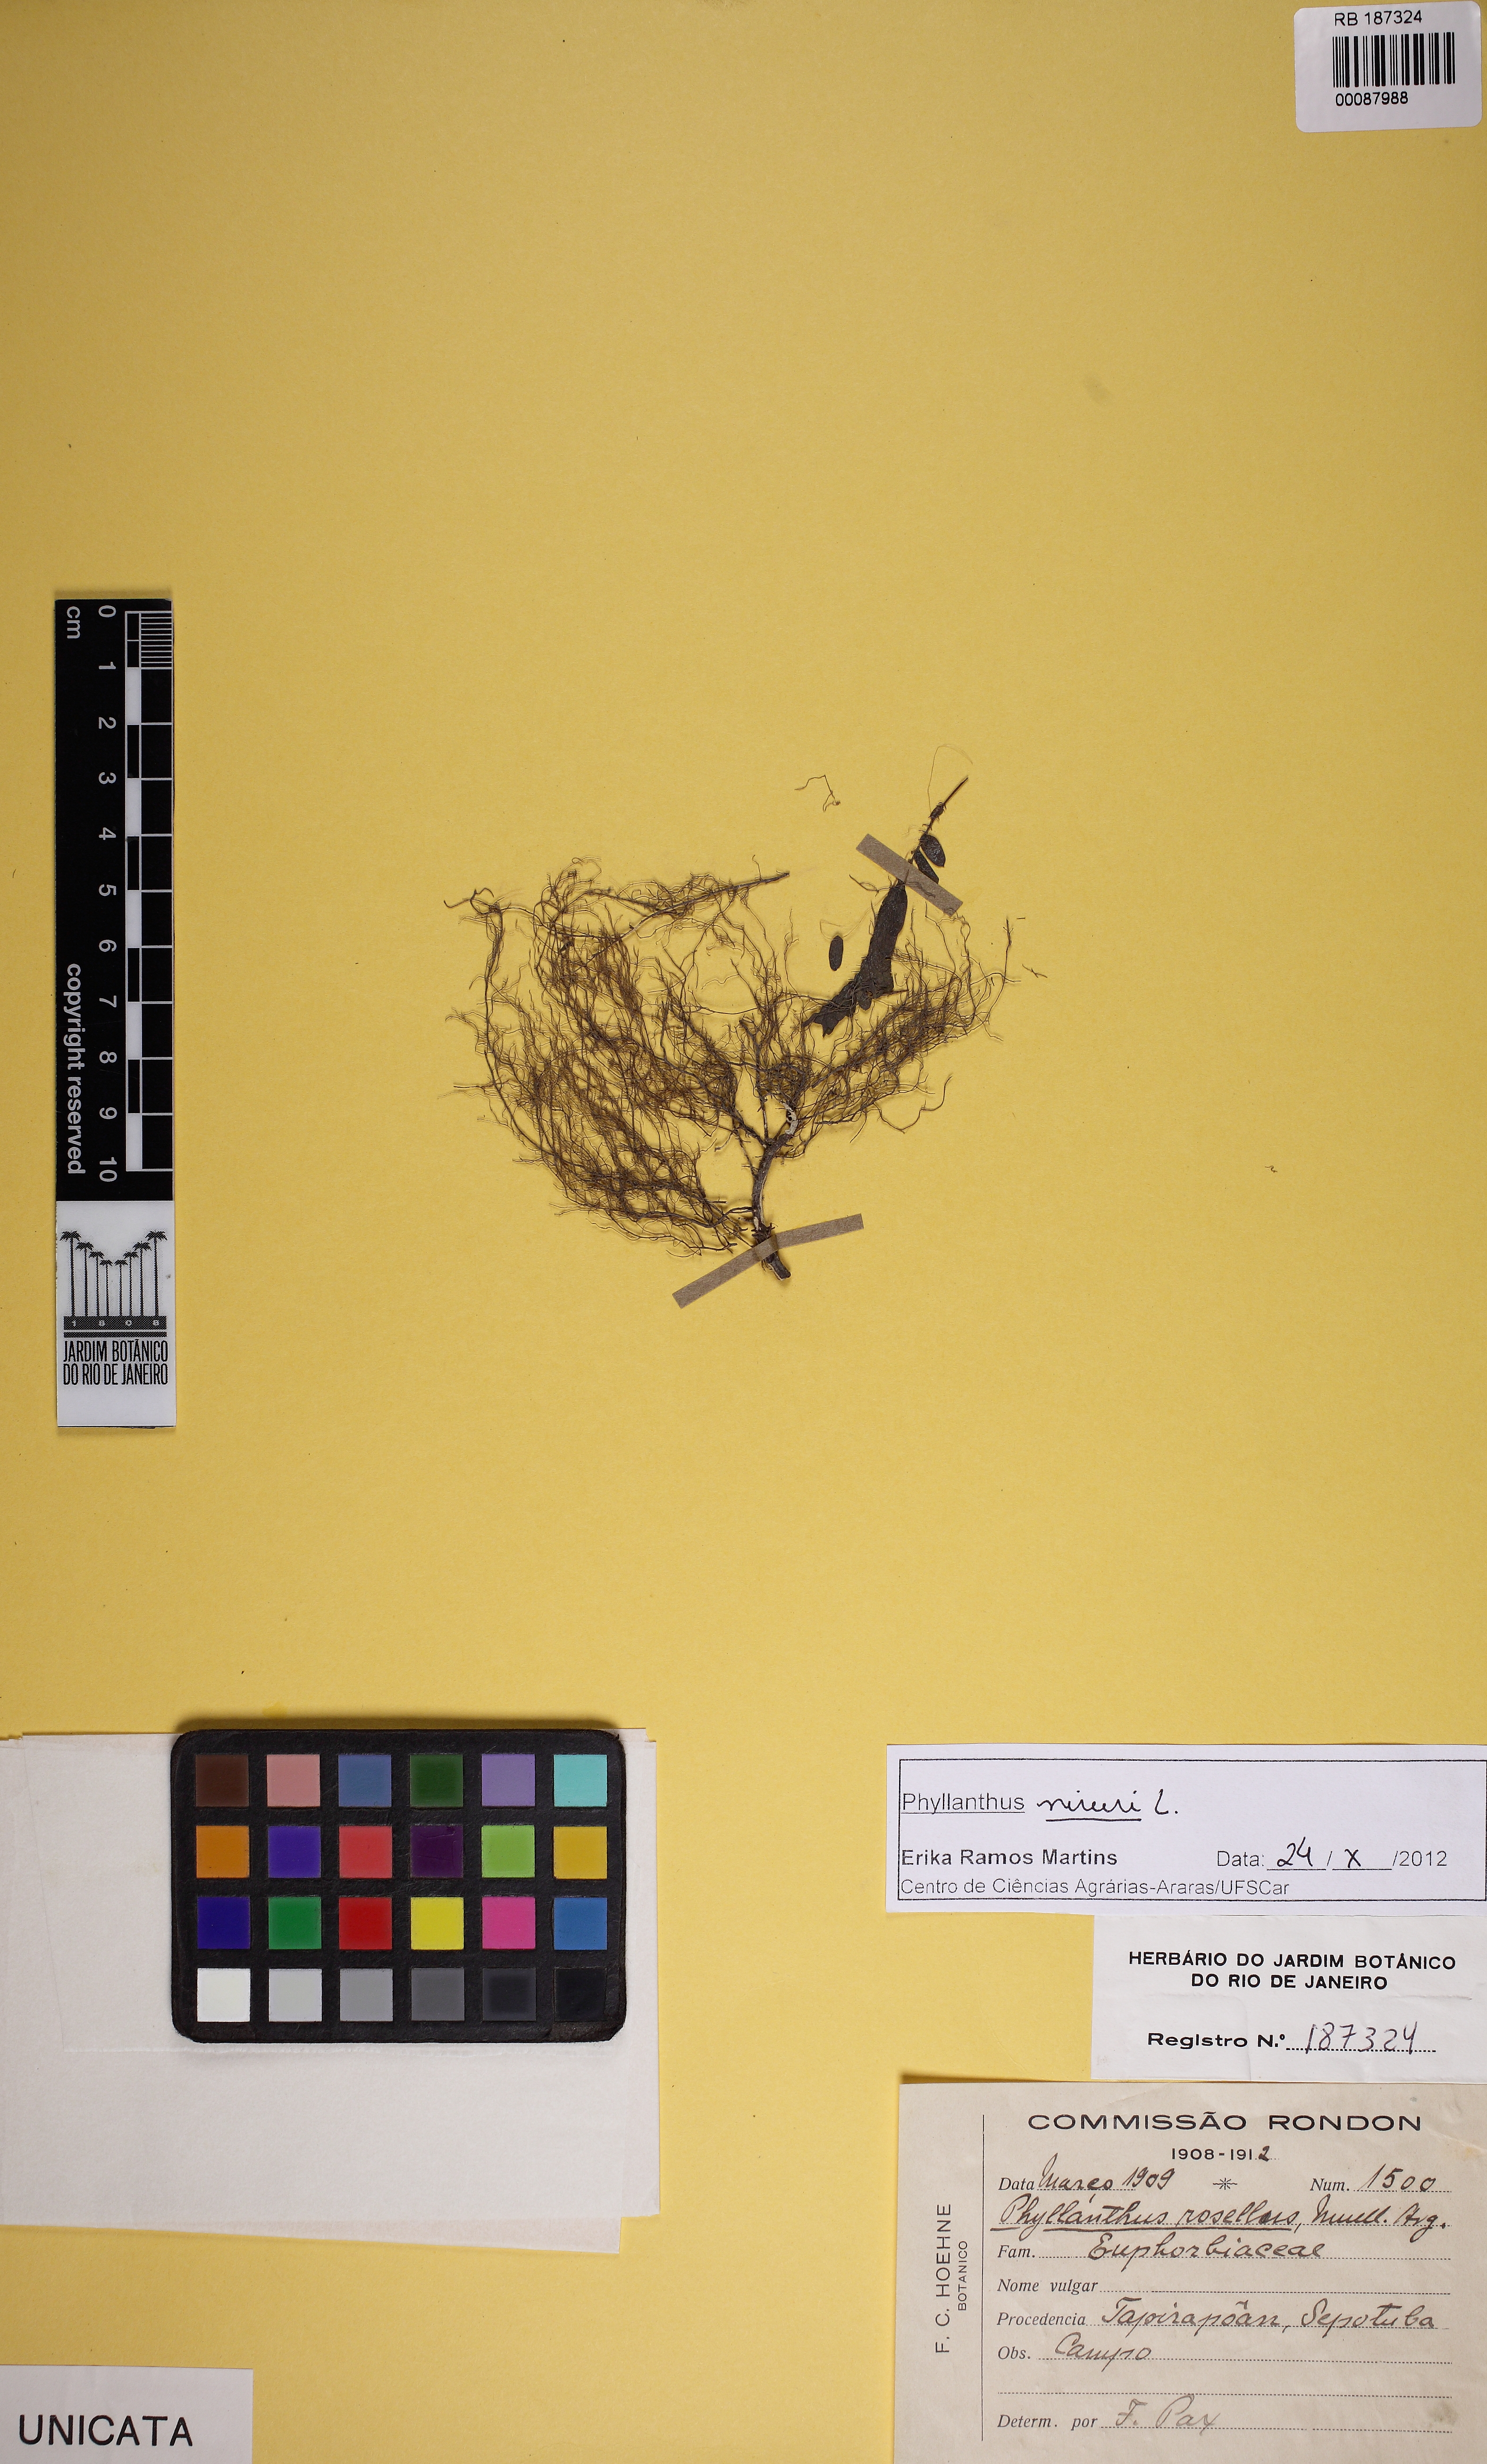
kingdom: Plantae
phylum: Tracheophyta
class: Magnoliopsida
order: Malpighiales
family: Phyllanthaceae
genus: Phyllanthus
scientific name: Phyllanthus niruri
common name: Niruri
